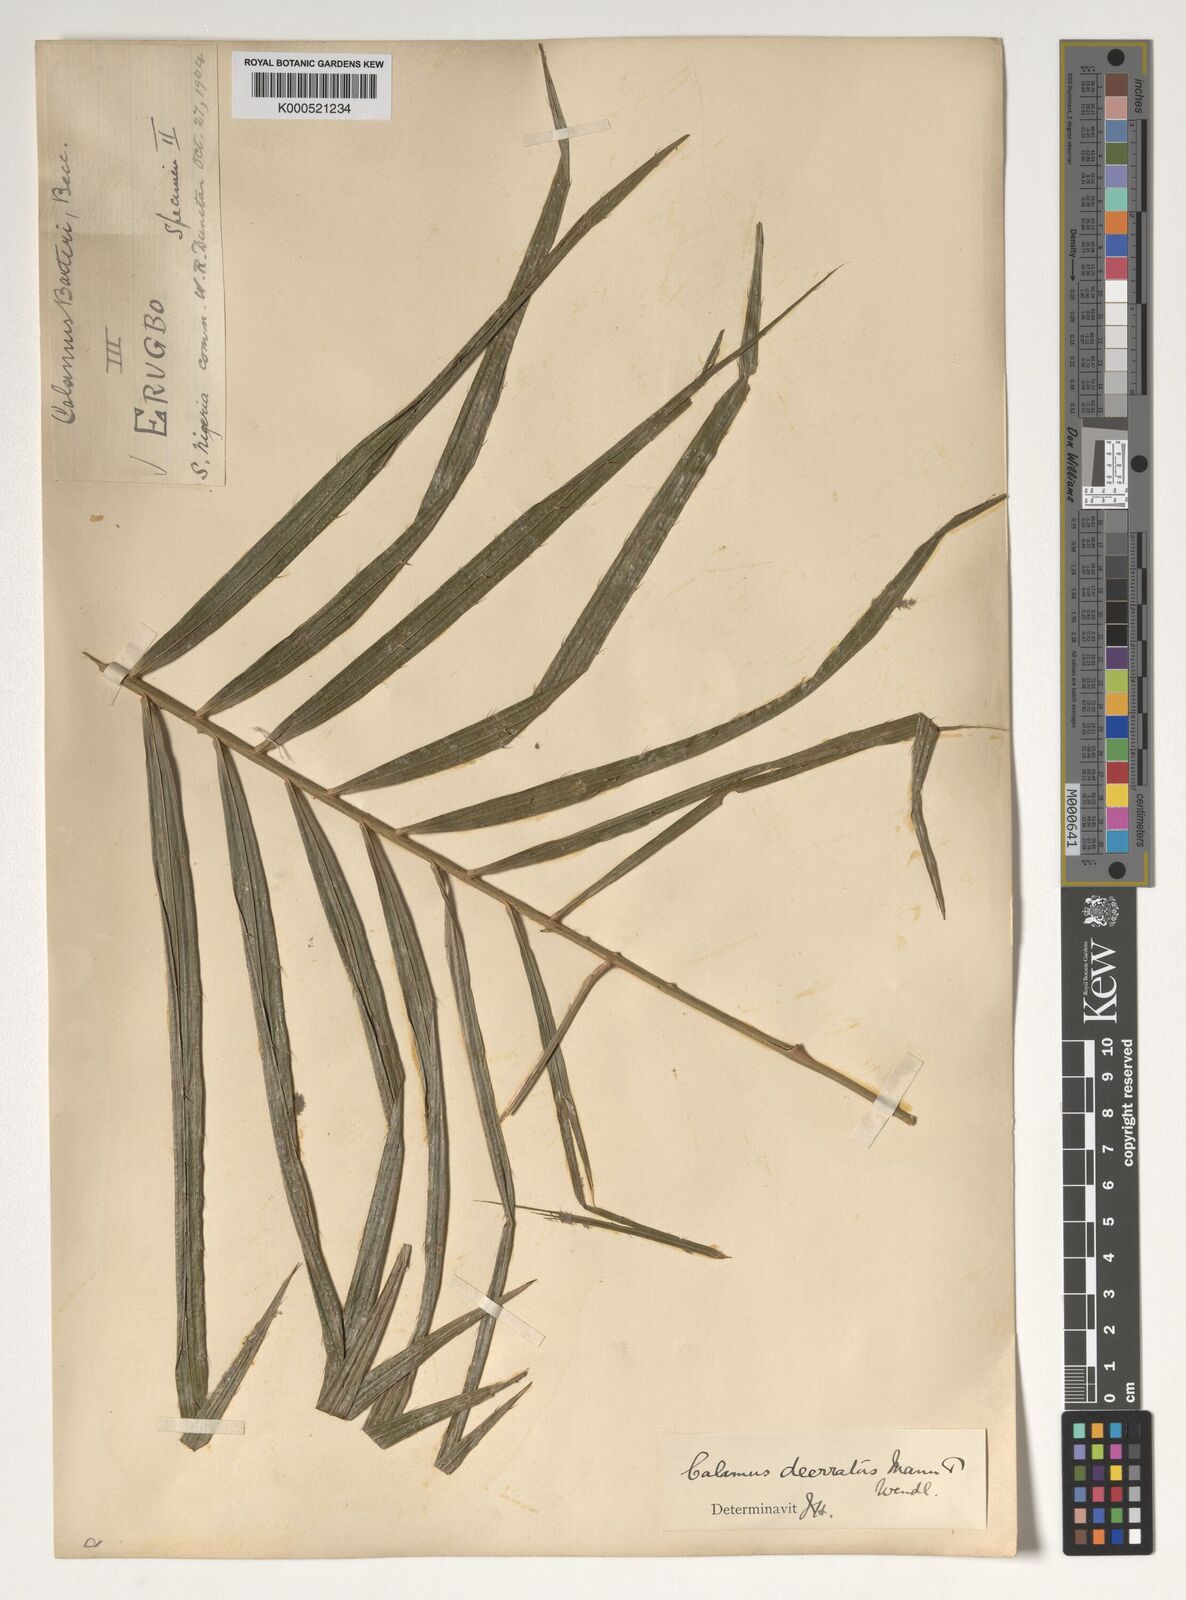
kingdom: Plantae
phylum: Tracheophyta
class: Liliopsida
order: Arecales
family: Arecaceae
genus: Calamus
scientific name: Calamus deerratus
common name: Rattan
